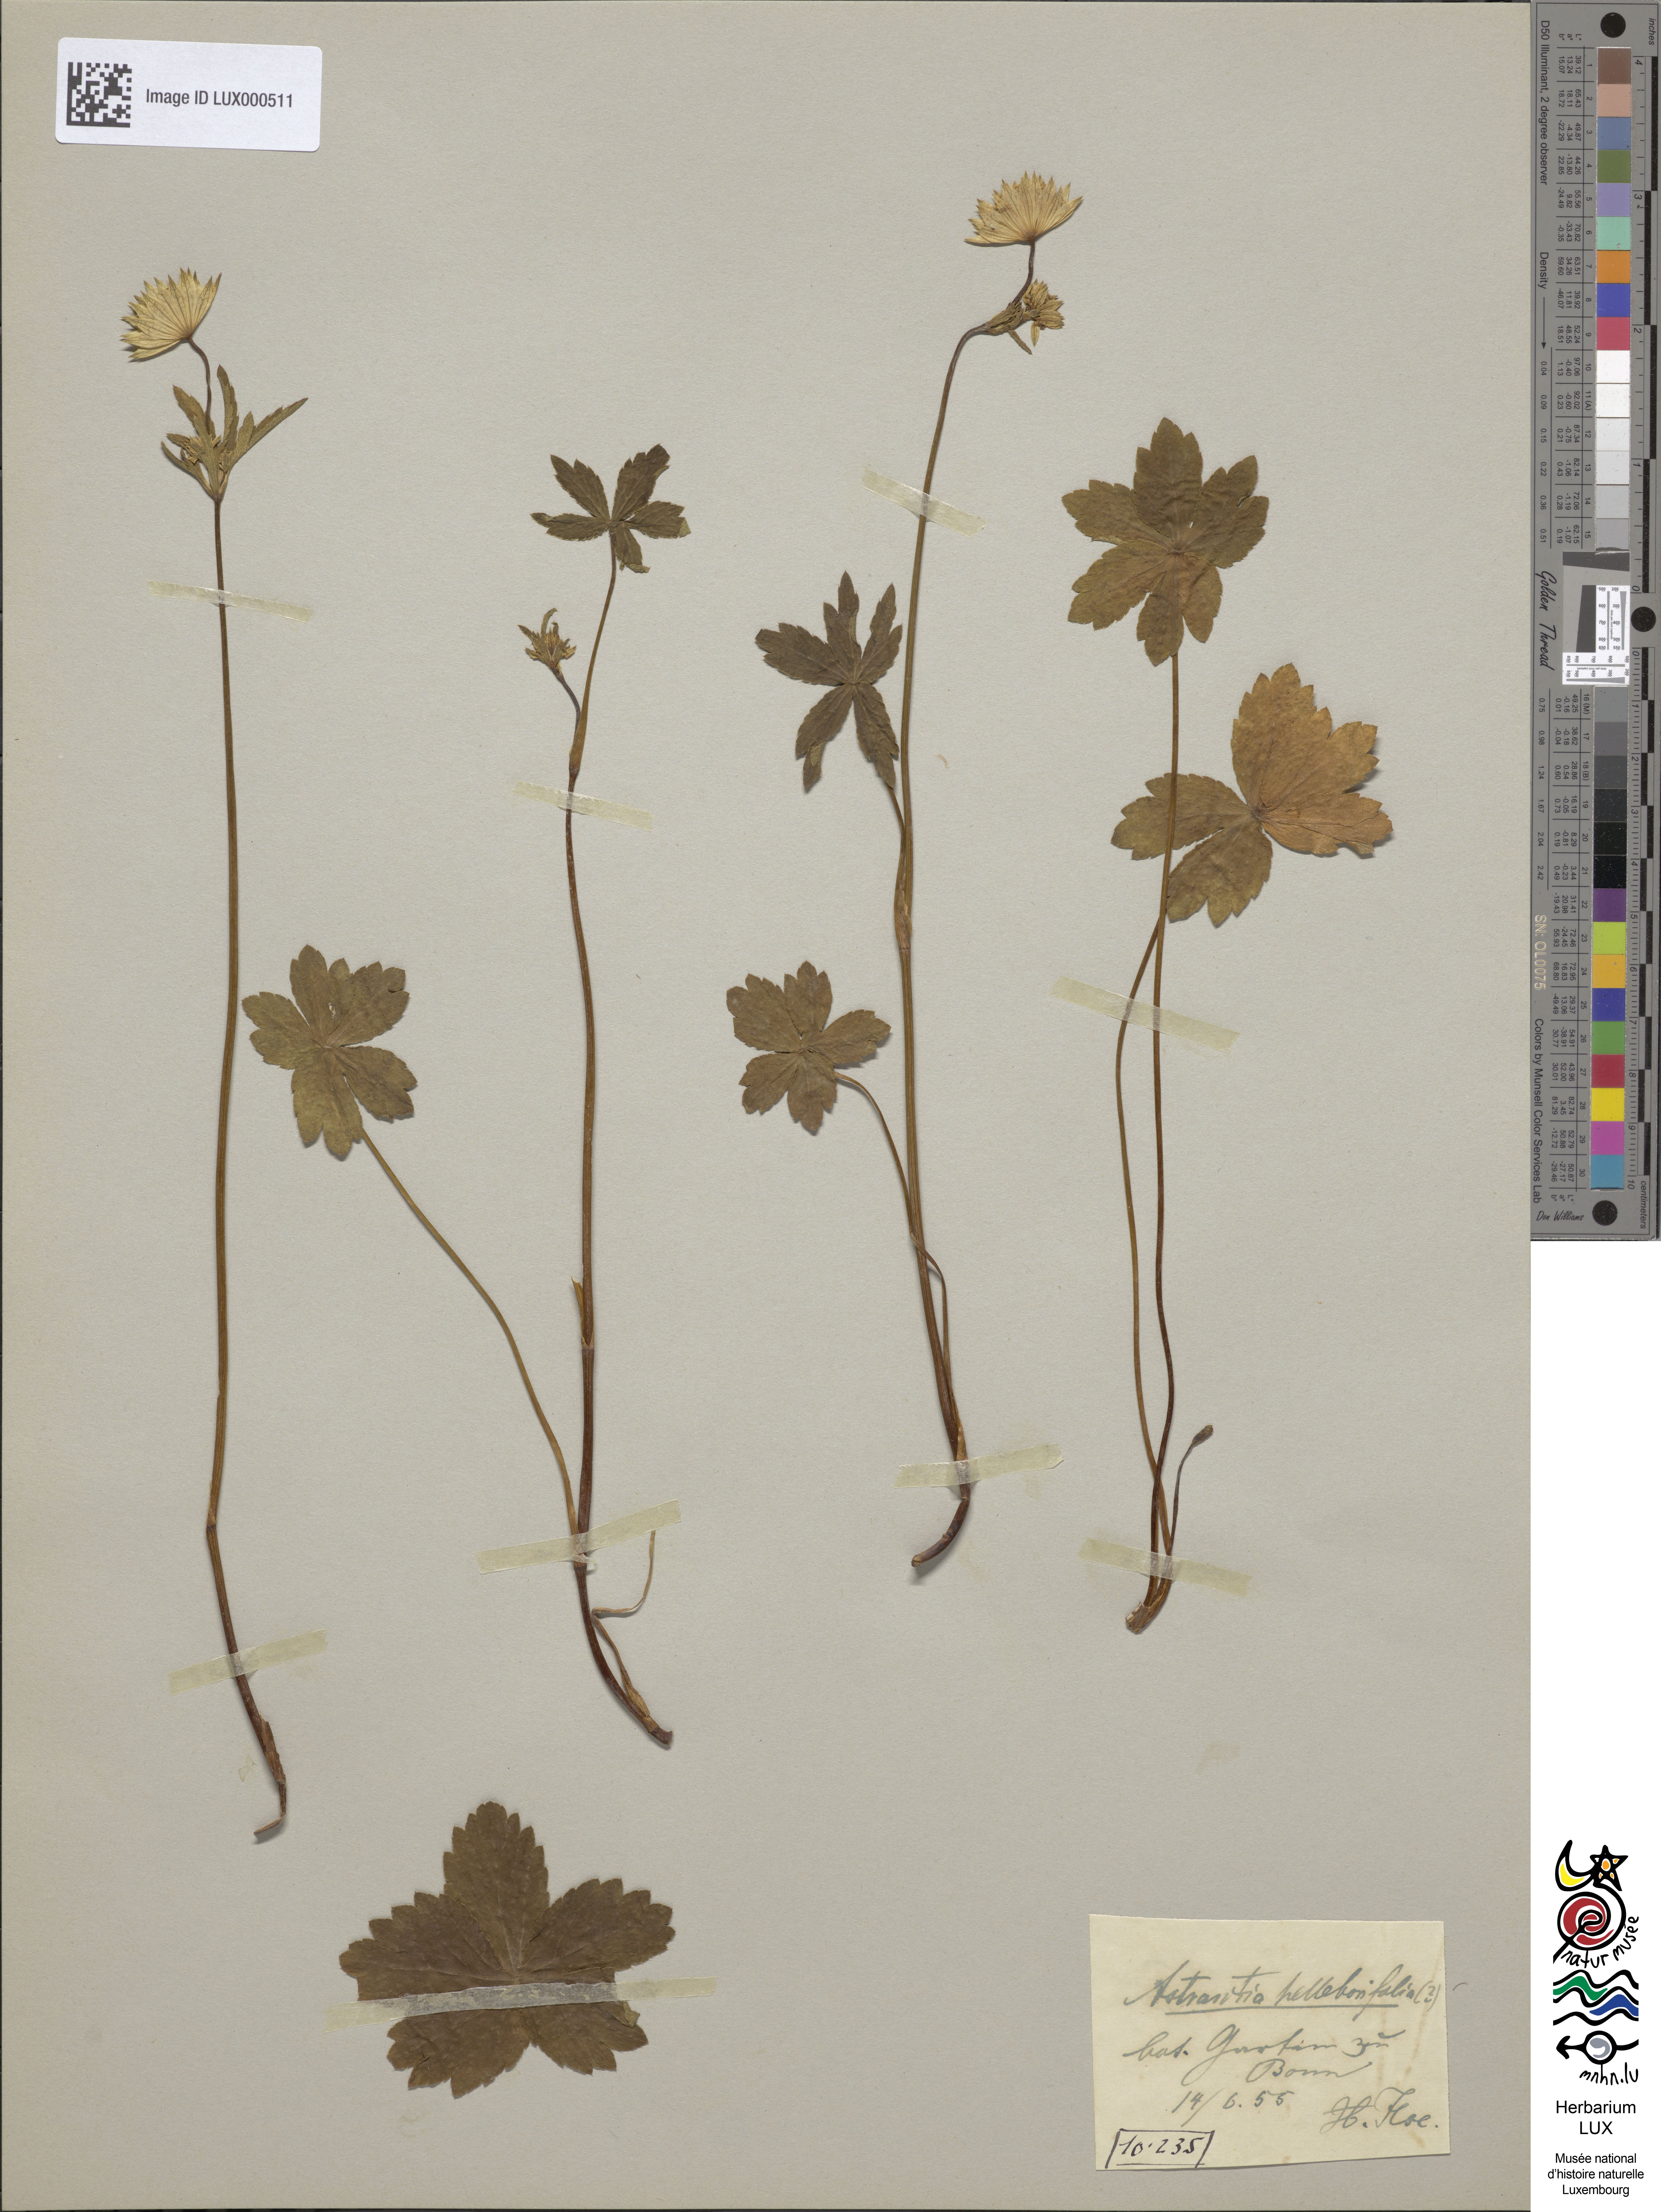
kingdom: Plantae
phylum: Tracheophyta
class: Magnoliopsida
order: Apiales
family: Apiaceae
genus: Astrantia
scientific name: Astrantia maxima
